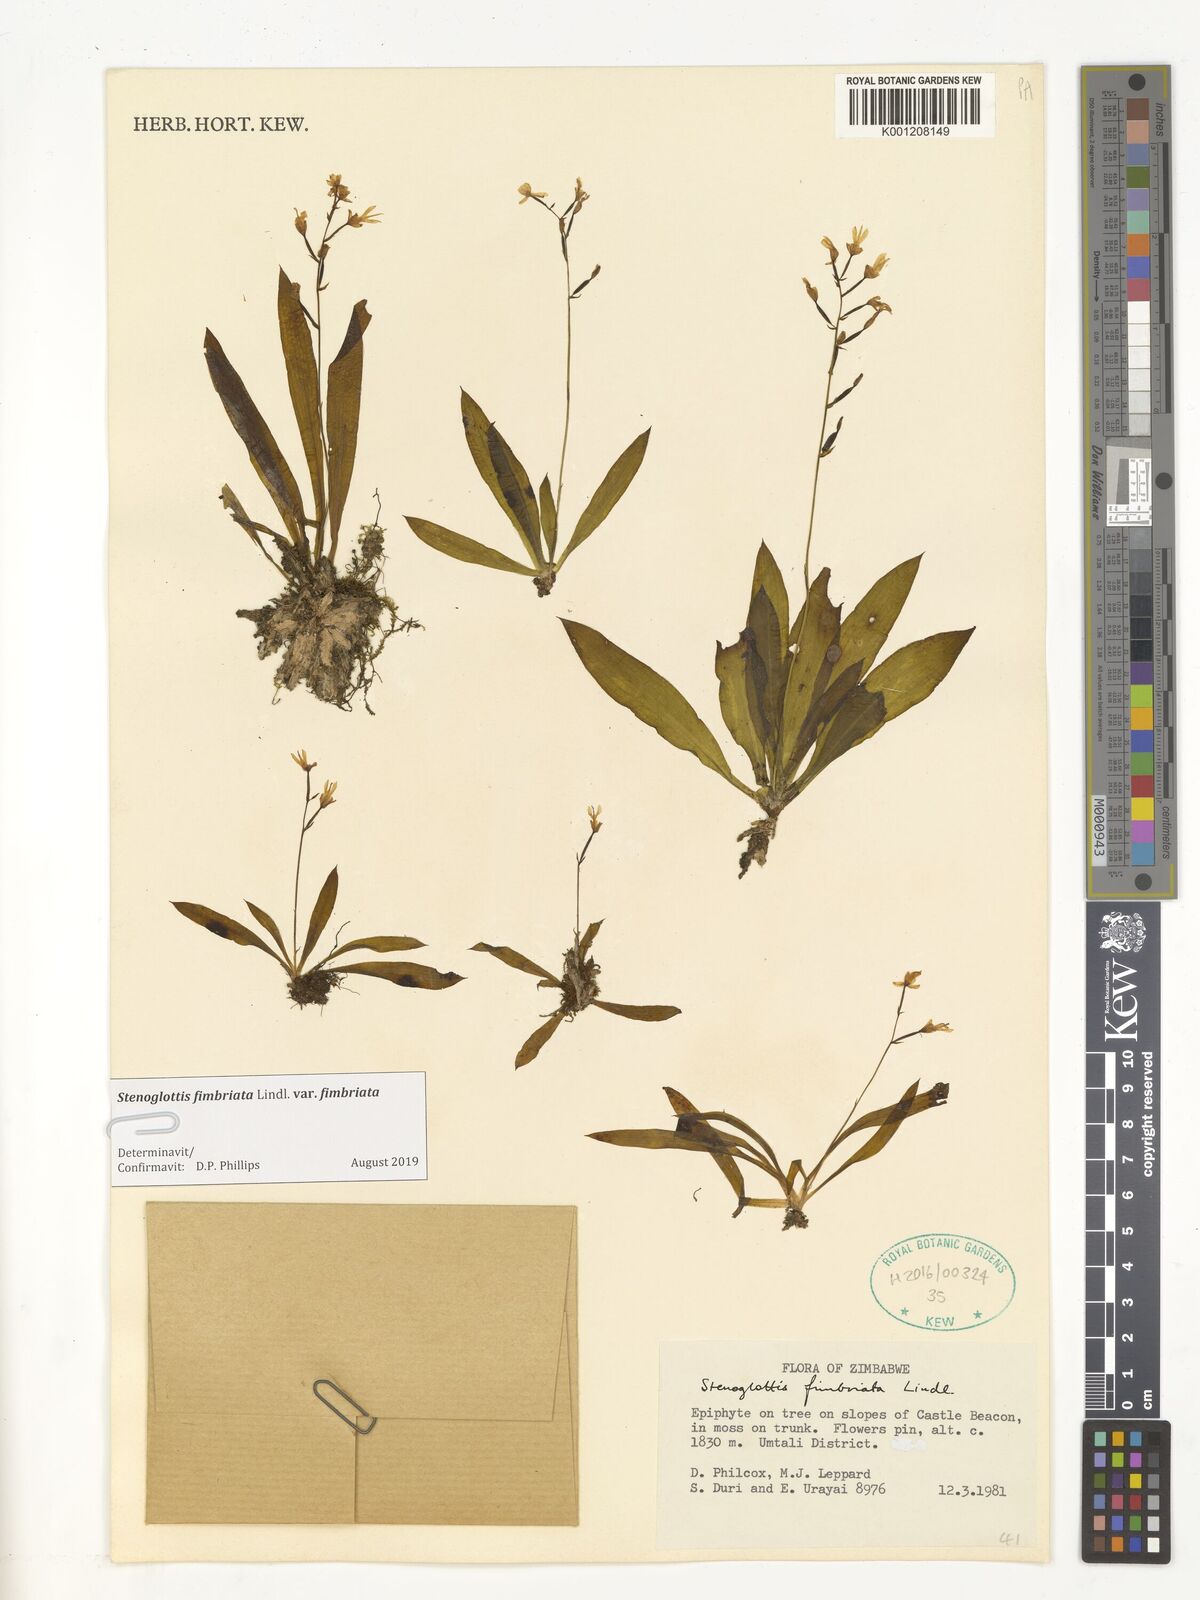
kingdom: Plantae
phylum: Tracheophyta
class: Liliopsida
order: Asparagales
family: Orchidaceae
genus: Stenoglottis
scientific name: Stenoglottis fimbriata
